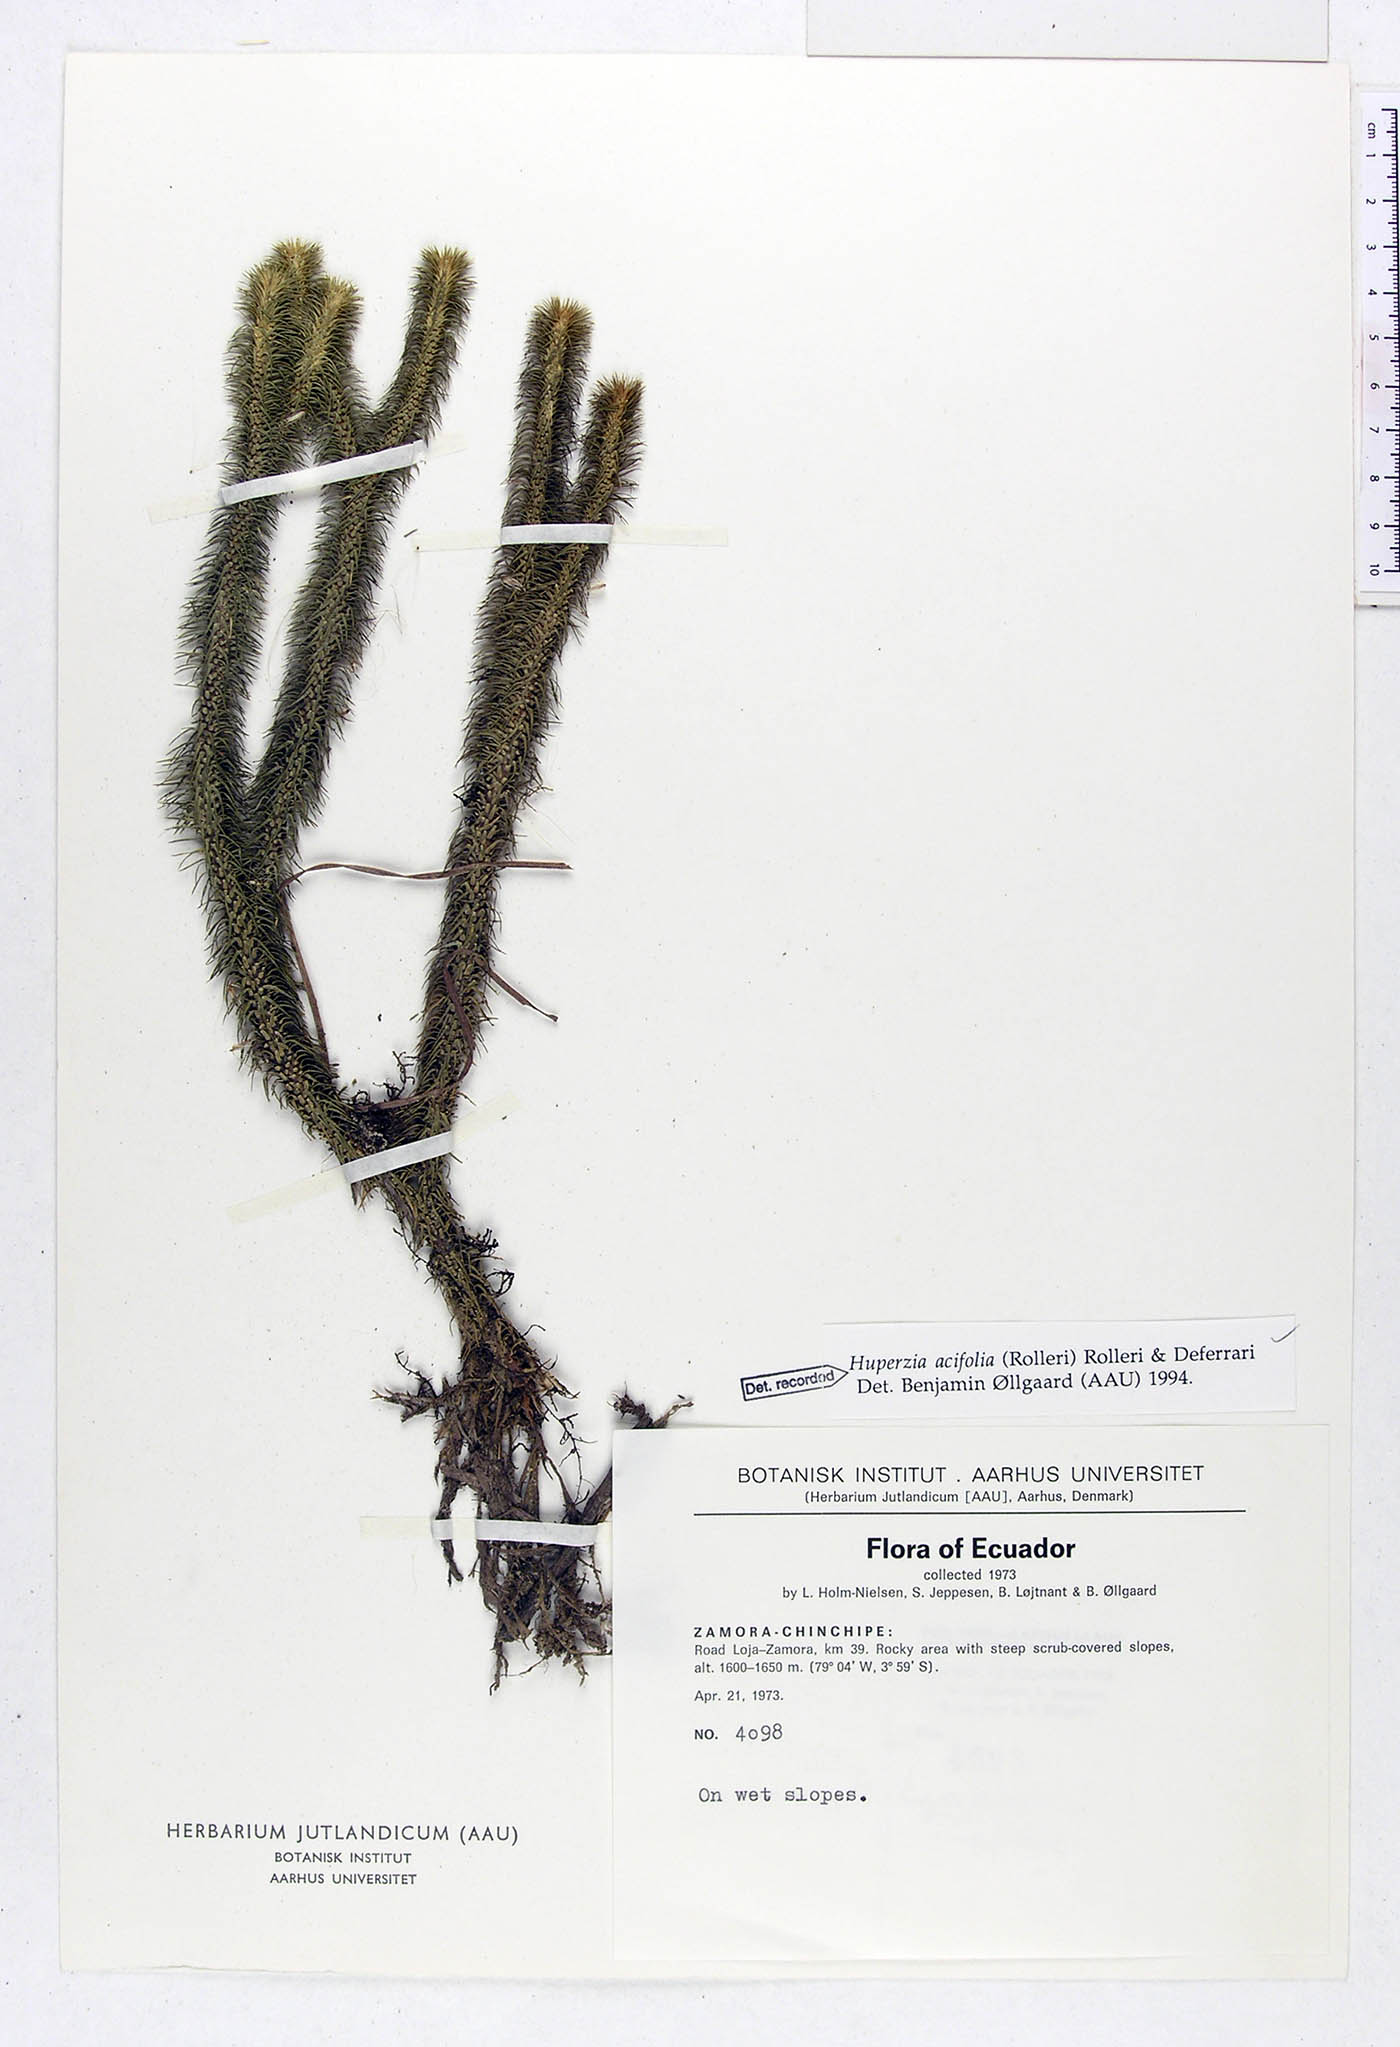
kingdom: Plantae
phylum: Tracheophyta
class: Lycopodiopsida
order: Lycopodiales
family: Lycopodiaceae
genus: Phlegmariurus
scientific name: Phlegmariurus acifolius
